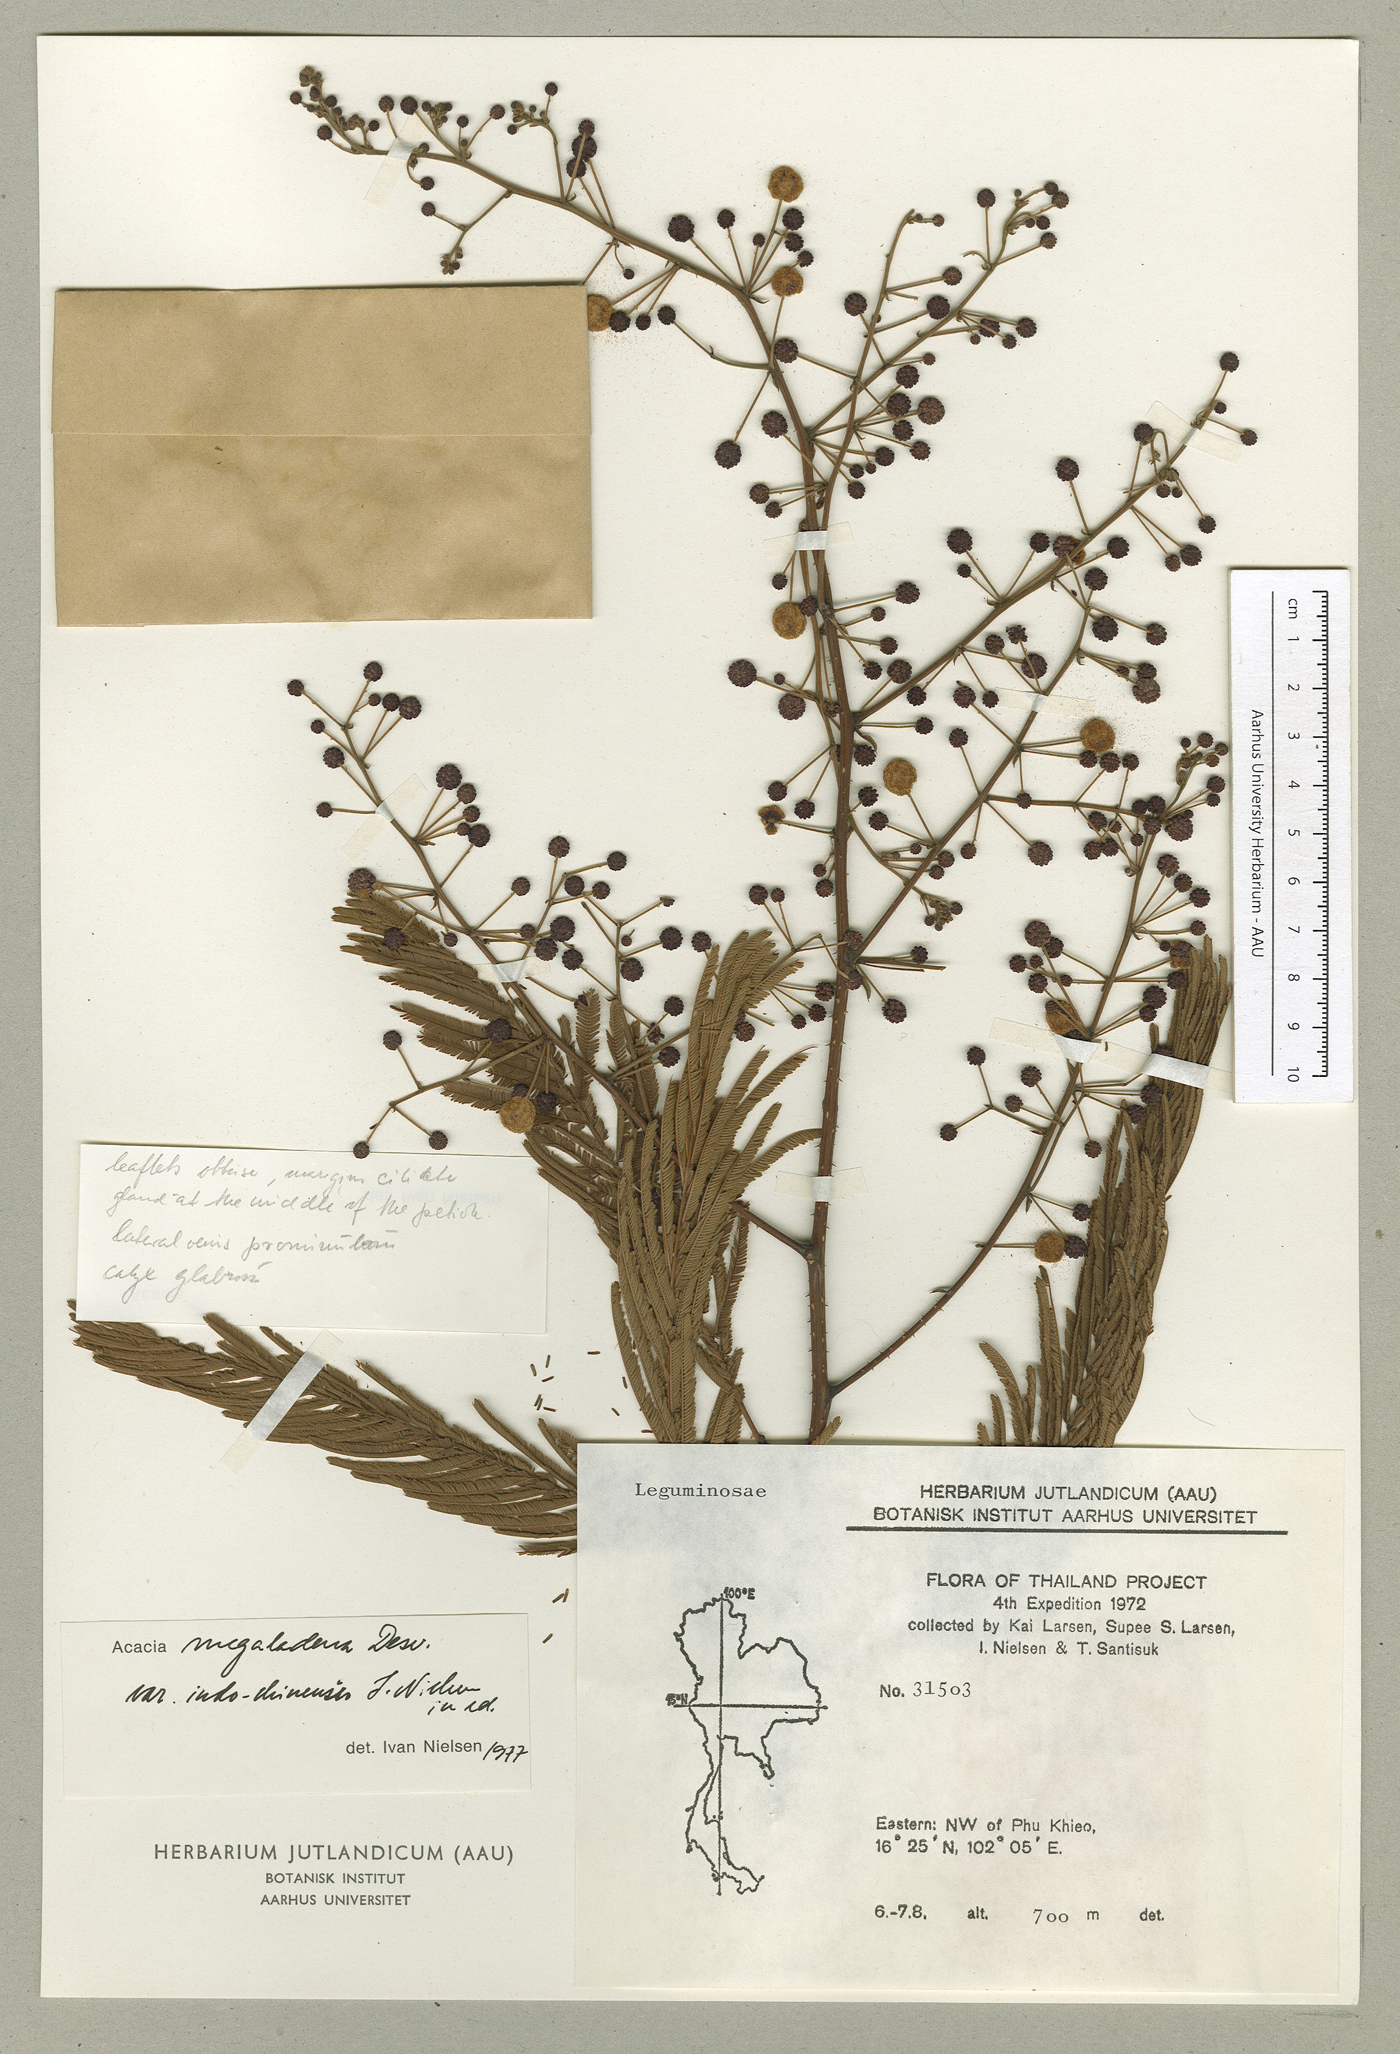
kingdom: Plantae
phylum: Tracheophyta
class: Magnoliopsida
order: Fabales
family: Fabaceae
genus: Senegalia
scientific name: Senegalia megaladena
